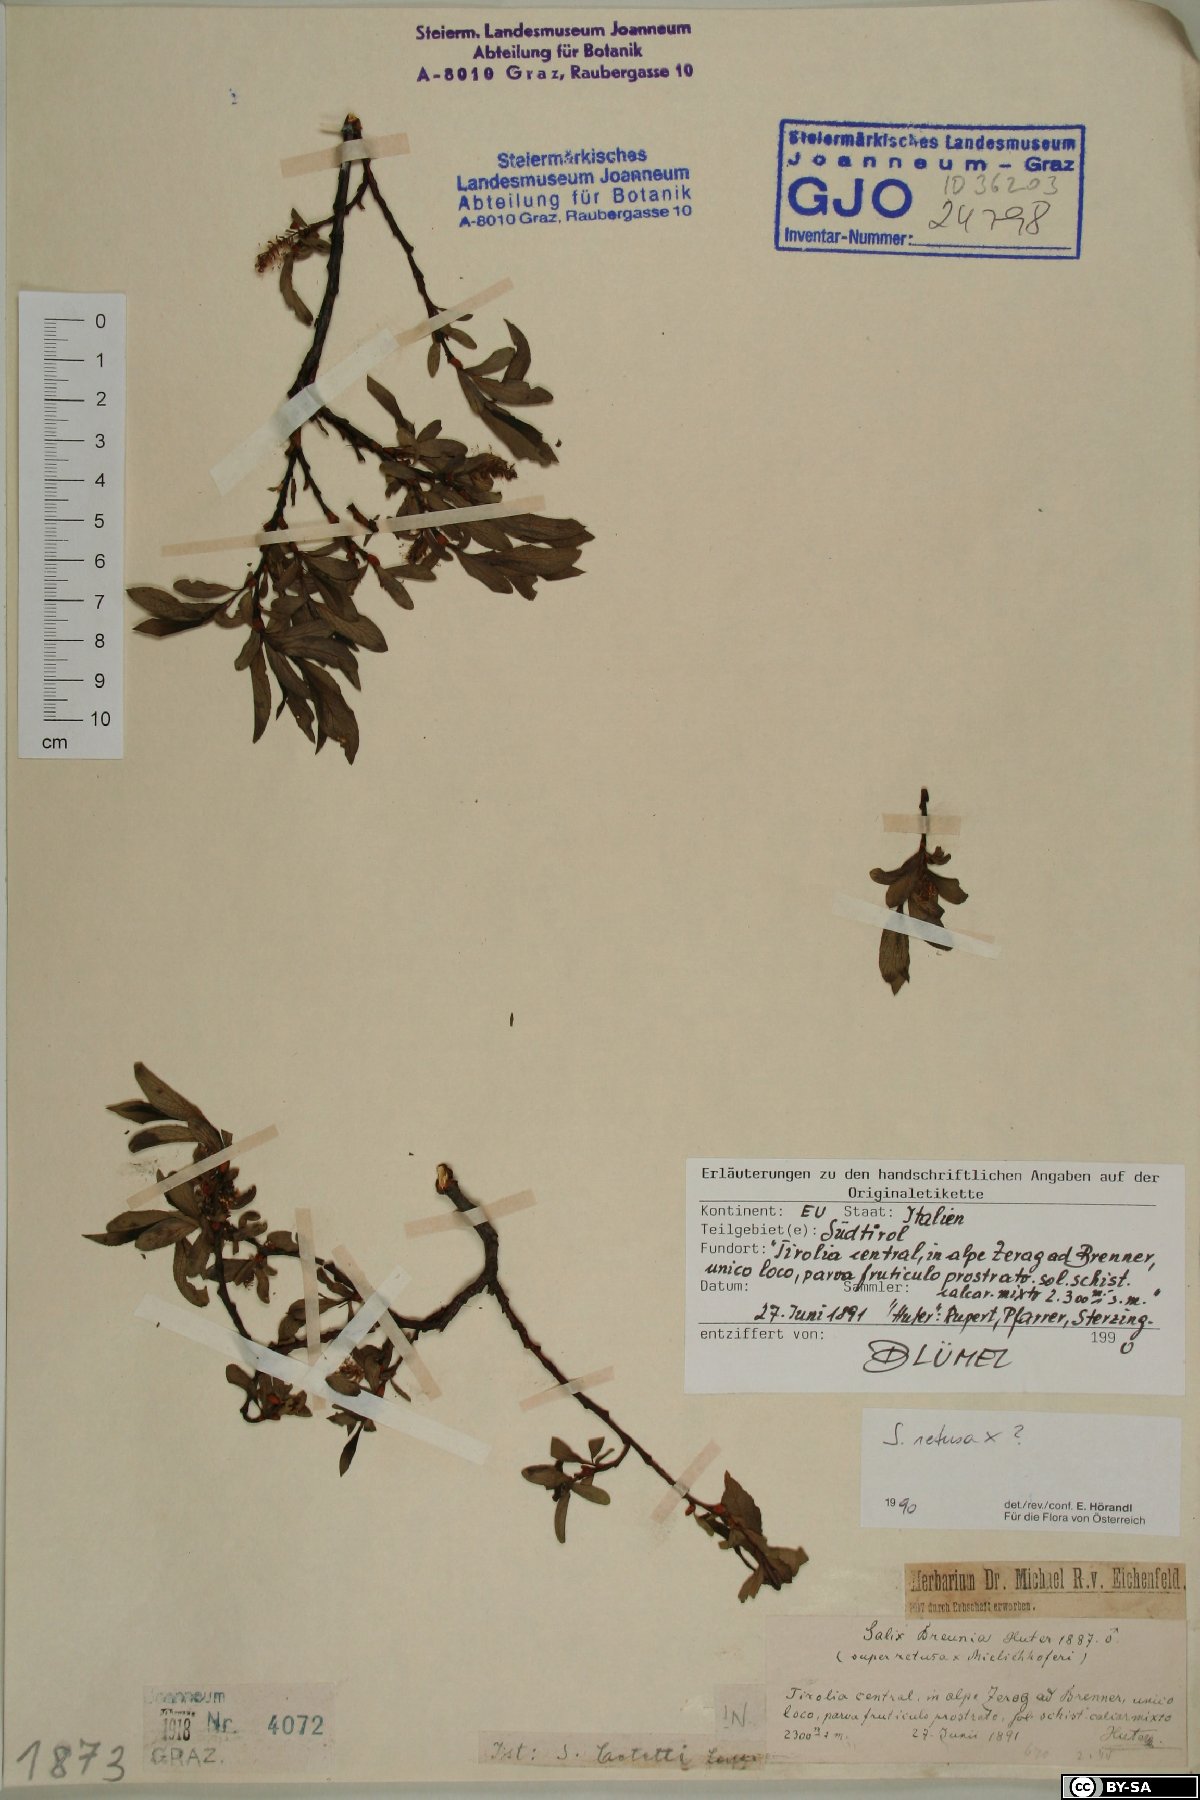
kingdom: Plantae
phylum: Tracheophyta
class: Magnoliopsida
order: Malpighiales
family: Salicaceae
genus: Salix
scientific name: Salix retusa
